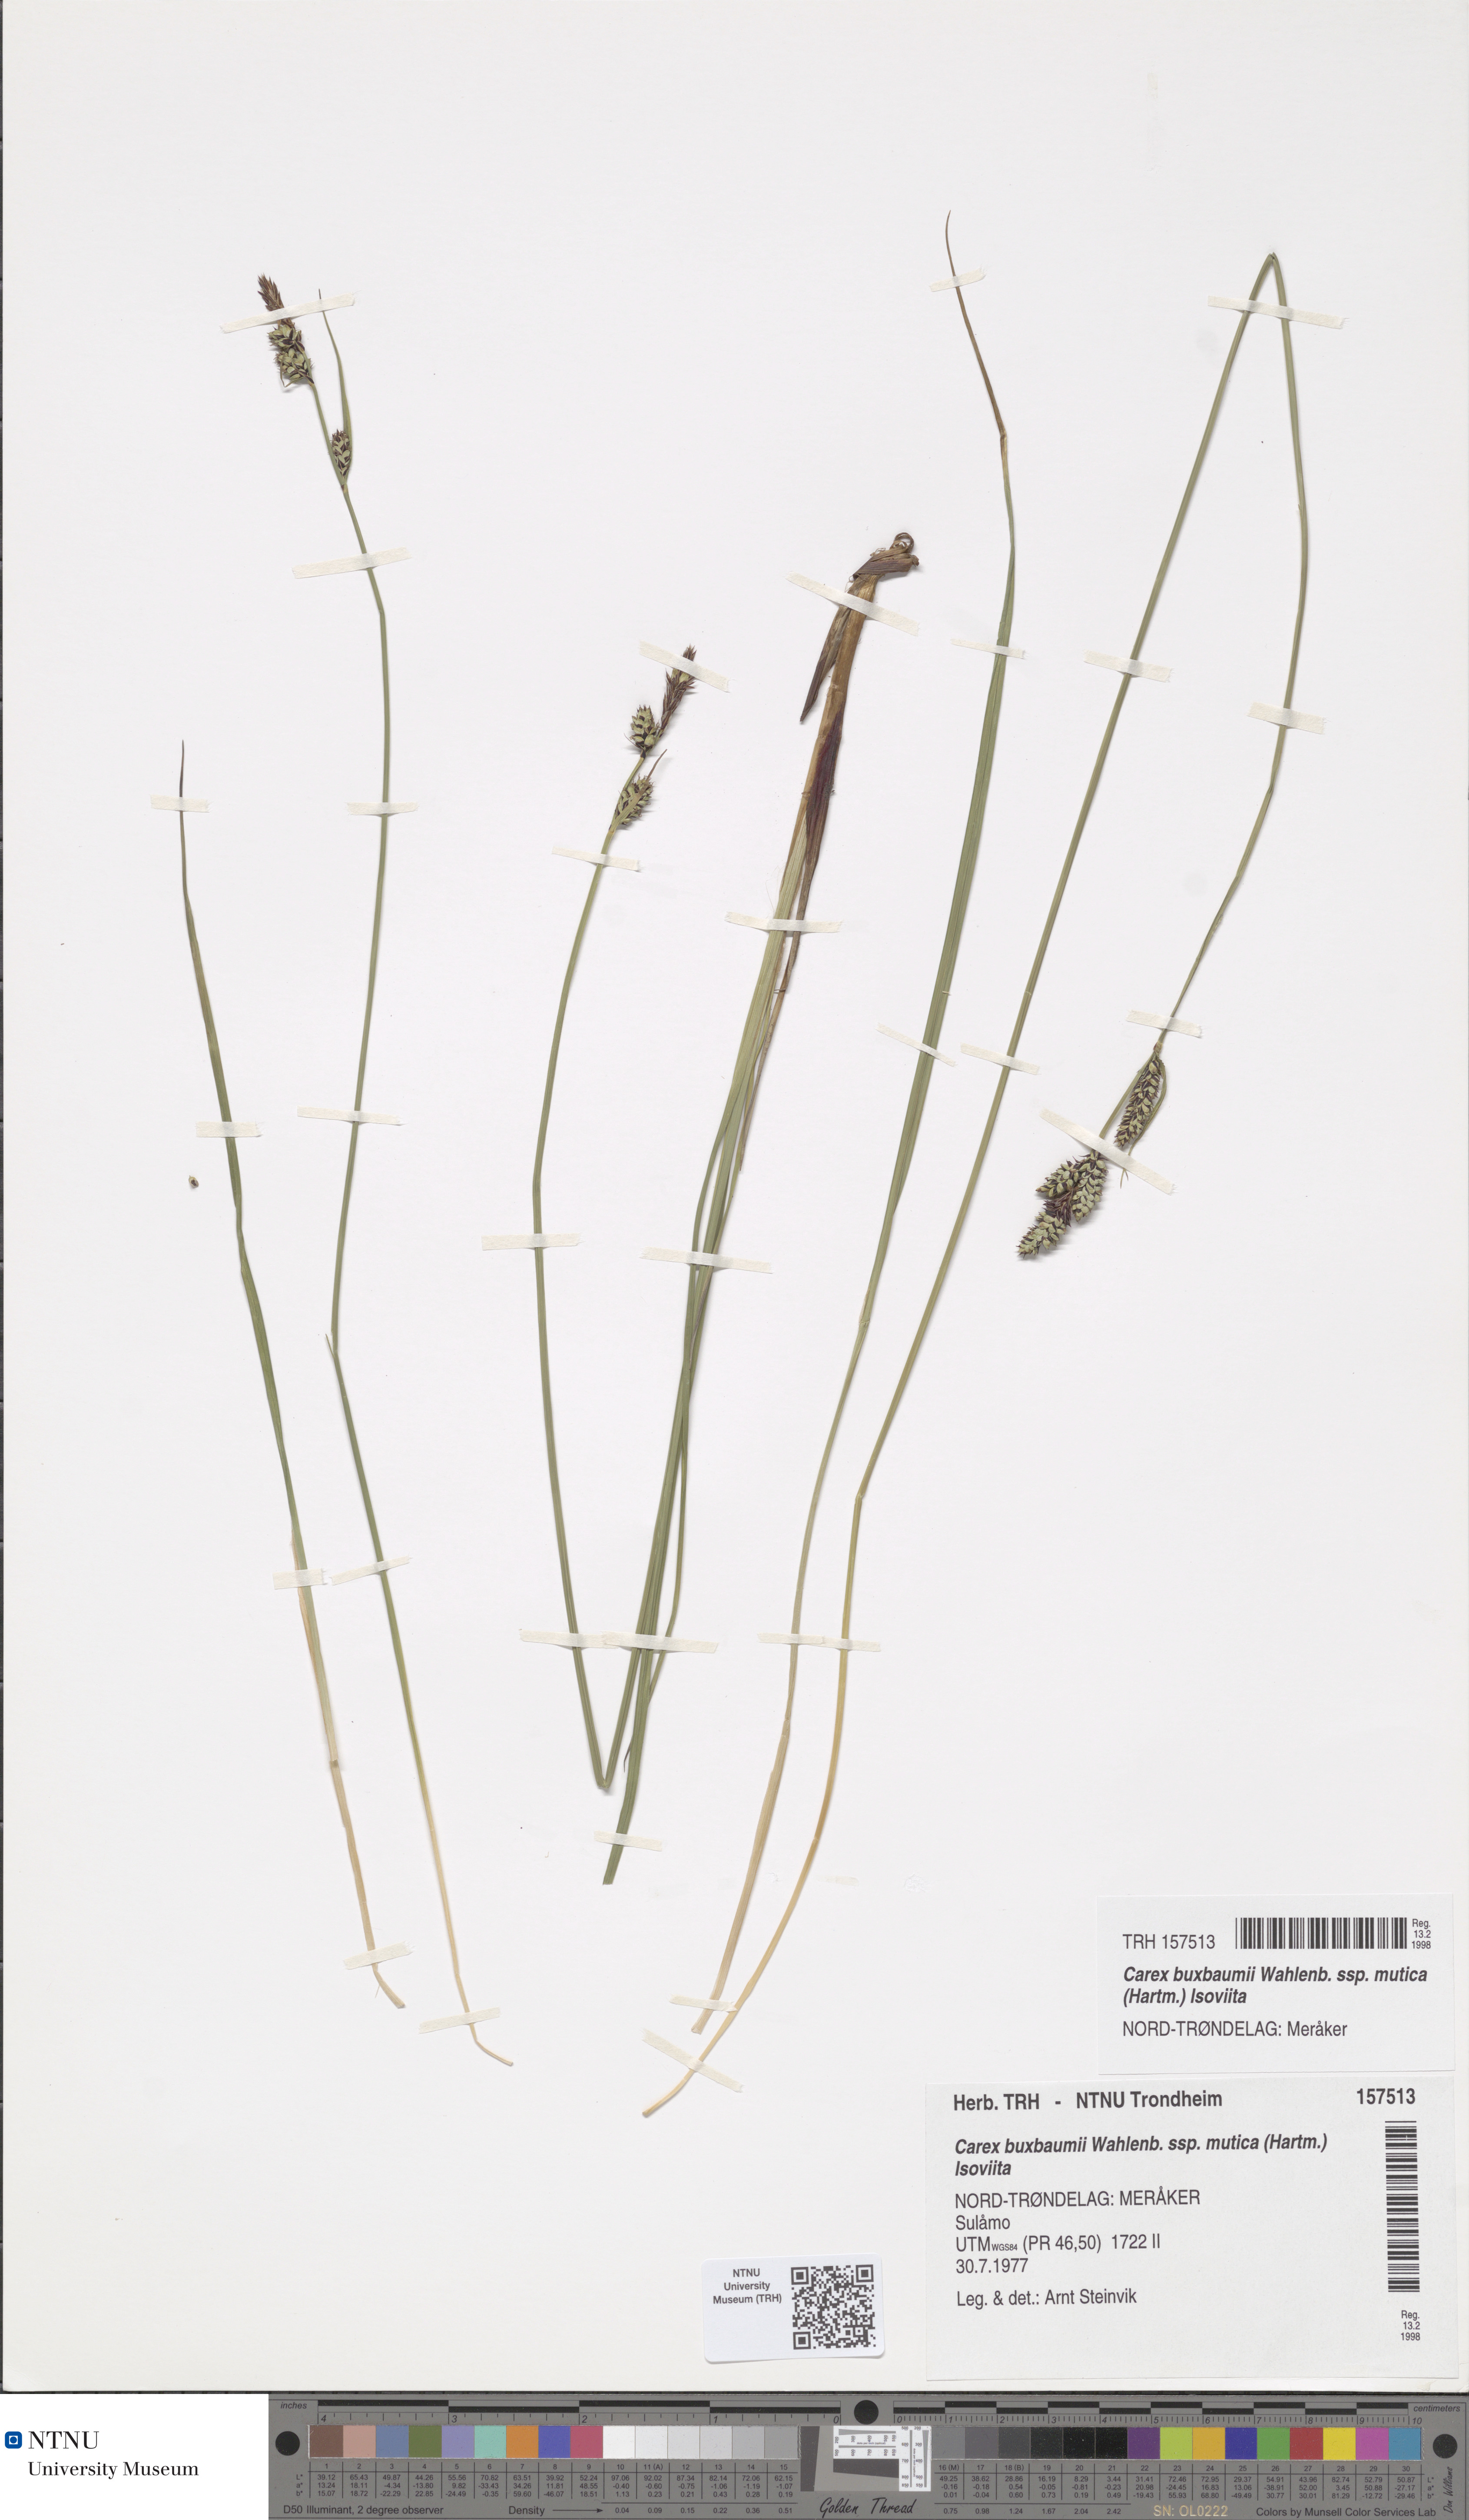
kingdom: Plantae
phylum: Tracheophyta
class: Liliopsida
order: Poales
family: Cyperaceae
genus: Carex
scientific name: Carex adelostoma
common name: Circumpolar sedge
